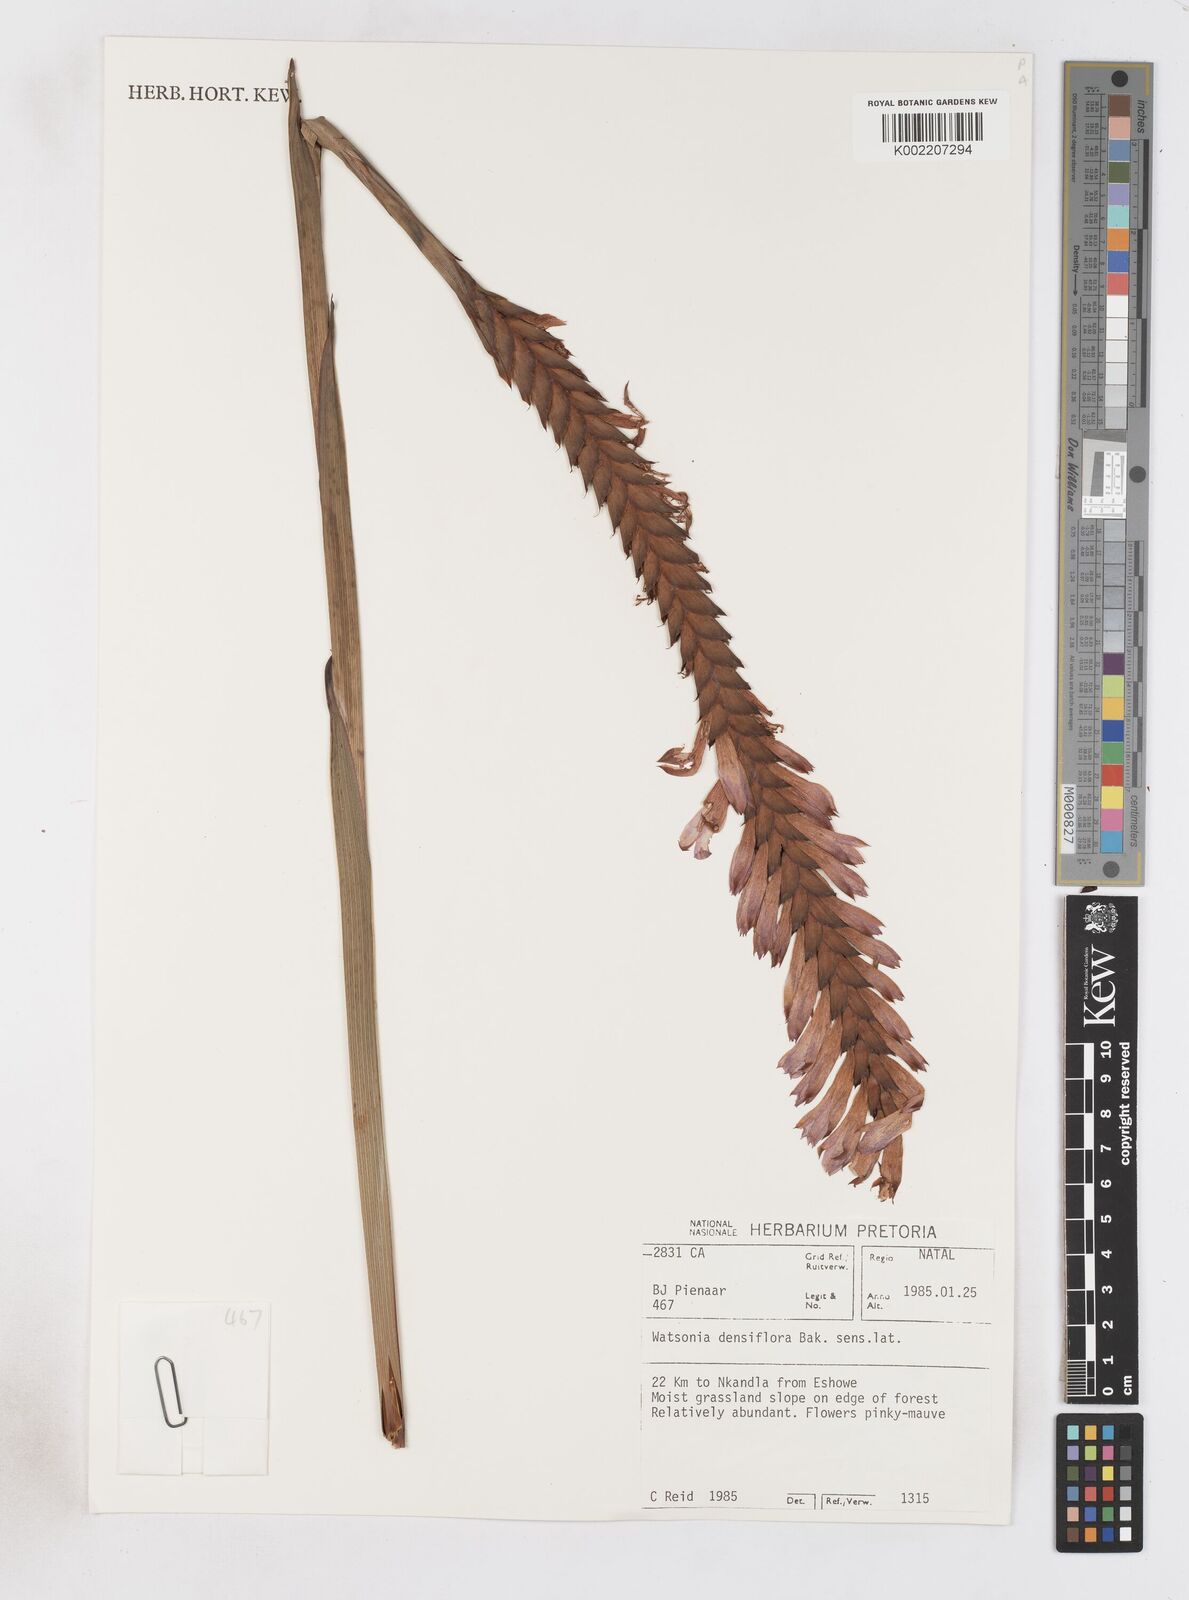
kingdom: Plantae
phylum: Tracheophyta
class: Liliopsida
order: Asparagales
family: Iridaceae
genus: Watsonia
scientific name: Watsonia densiflora
